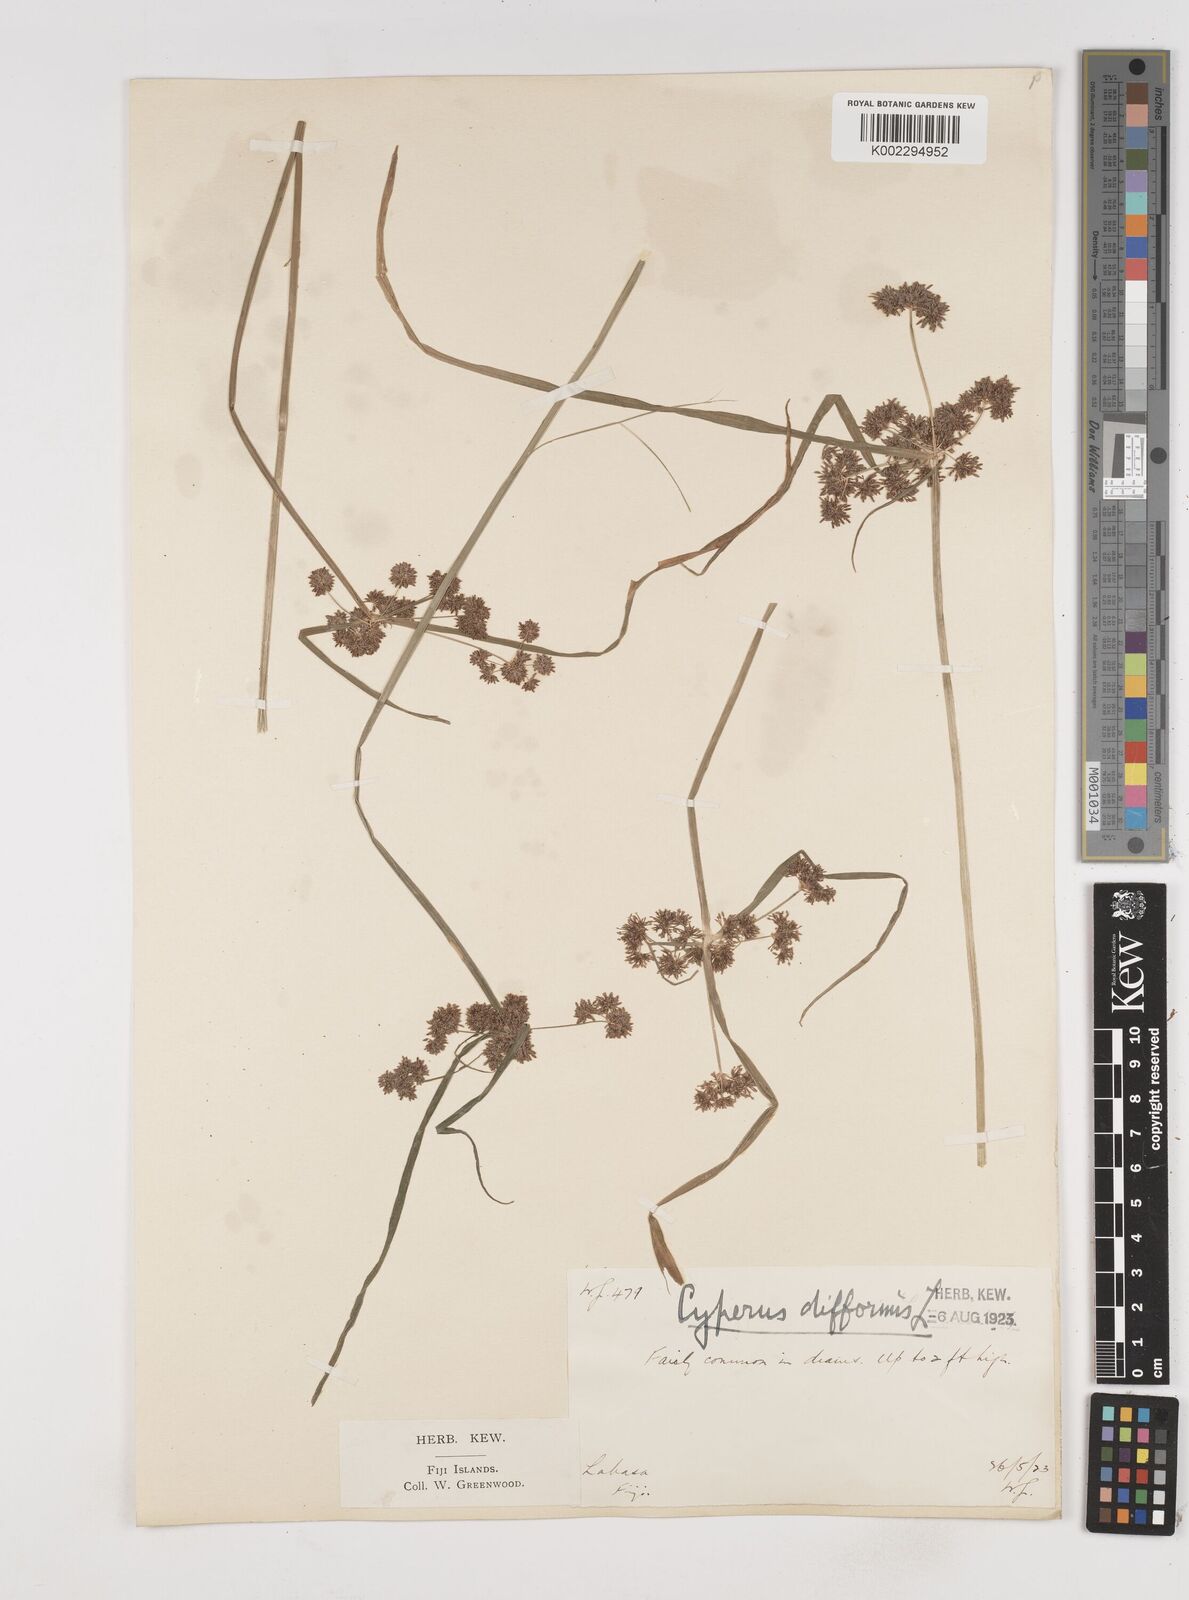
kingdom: Plantae
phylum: Tracheophyta
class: Liliopsida
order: Poales
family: Cyperaceae
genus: Cyperus
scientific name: Cyperus difformis
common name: Variable flatsedge
